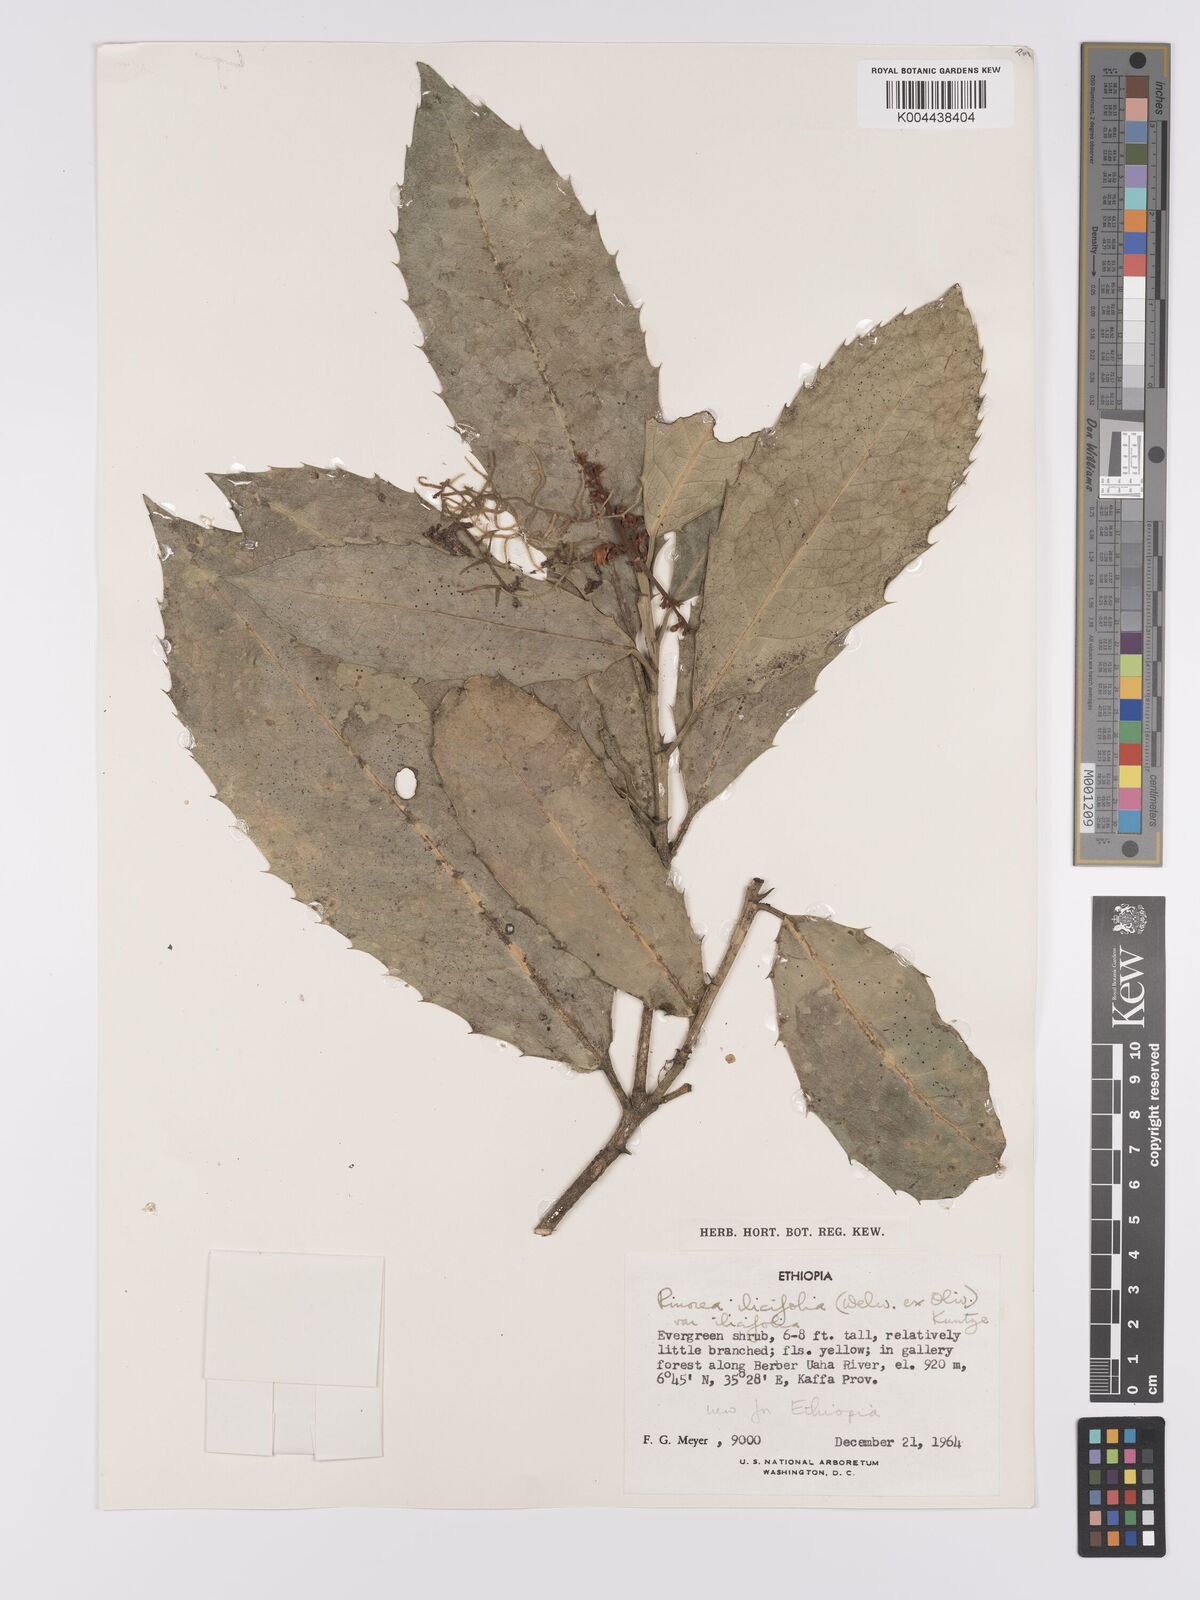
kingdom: Plantae
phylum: Tracheophyta
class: Magnoliopsida
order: Malpighiales
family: Violaceae
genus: Rinorea
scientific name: Rinorea ilicifolia
